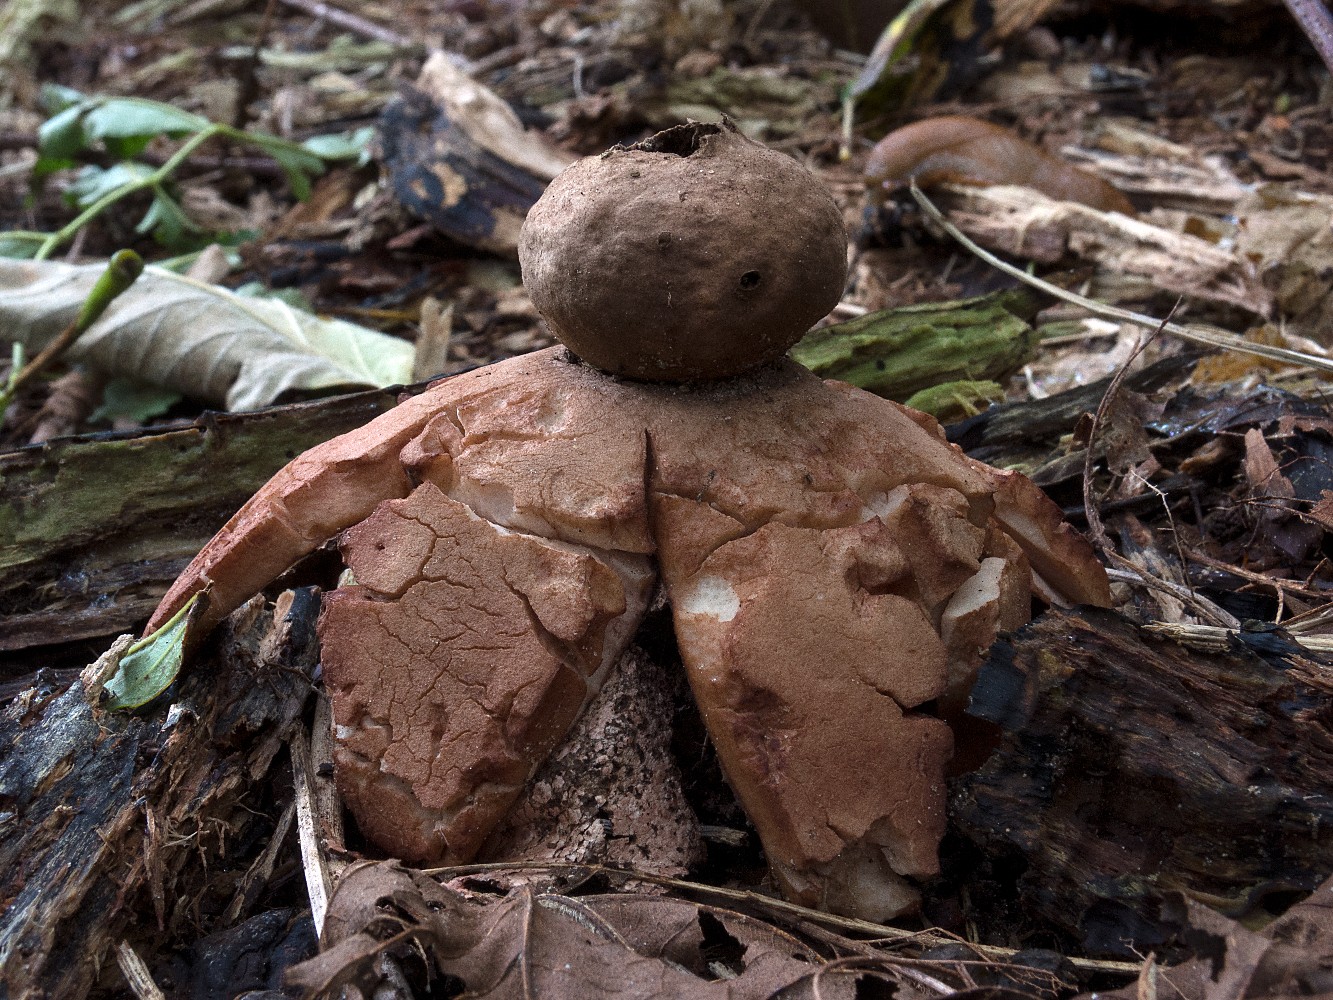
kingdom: Fungi
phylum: Basidiomycota
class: Agaricomycetes
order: Geastrales
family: Geastraceae
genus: Geastrum
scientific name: Geastrum rufescens
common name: kødfarvet stjernebold
